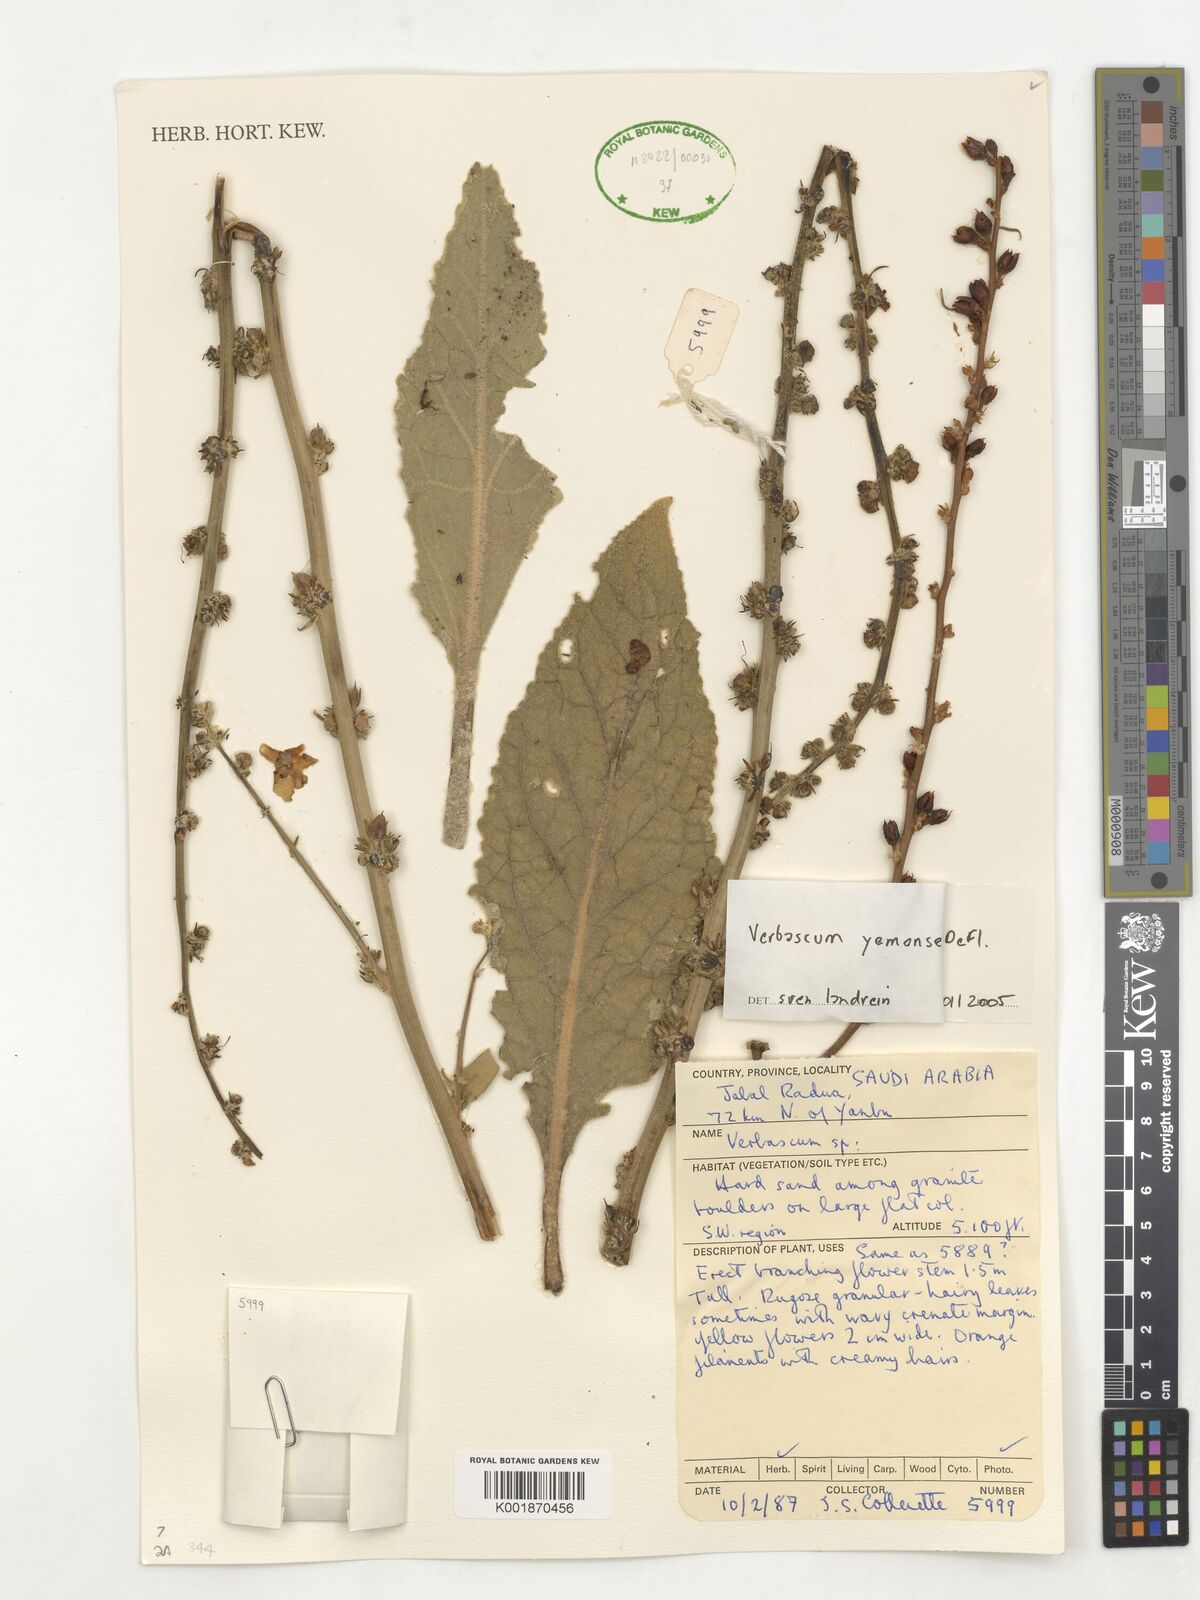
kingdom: Plantae
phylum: Tracheophyta
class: Magnoliopsida
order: Lamiales
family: Scrophulariaceae
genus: Verbascum
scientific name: Verbascum yemense
